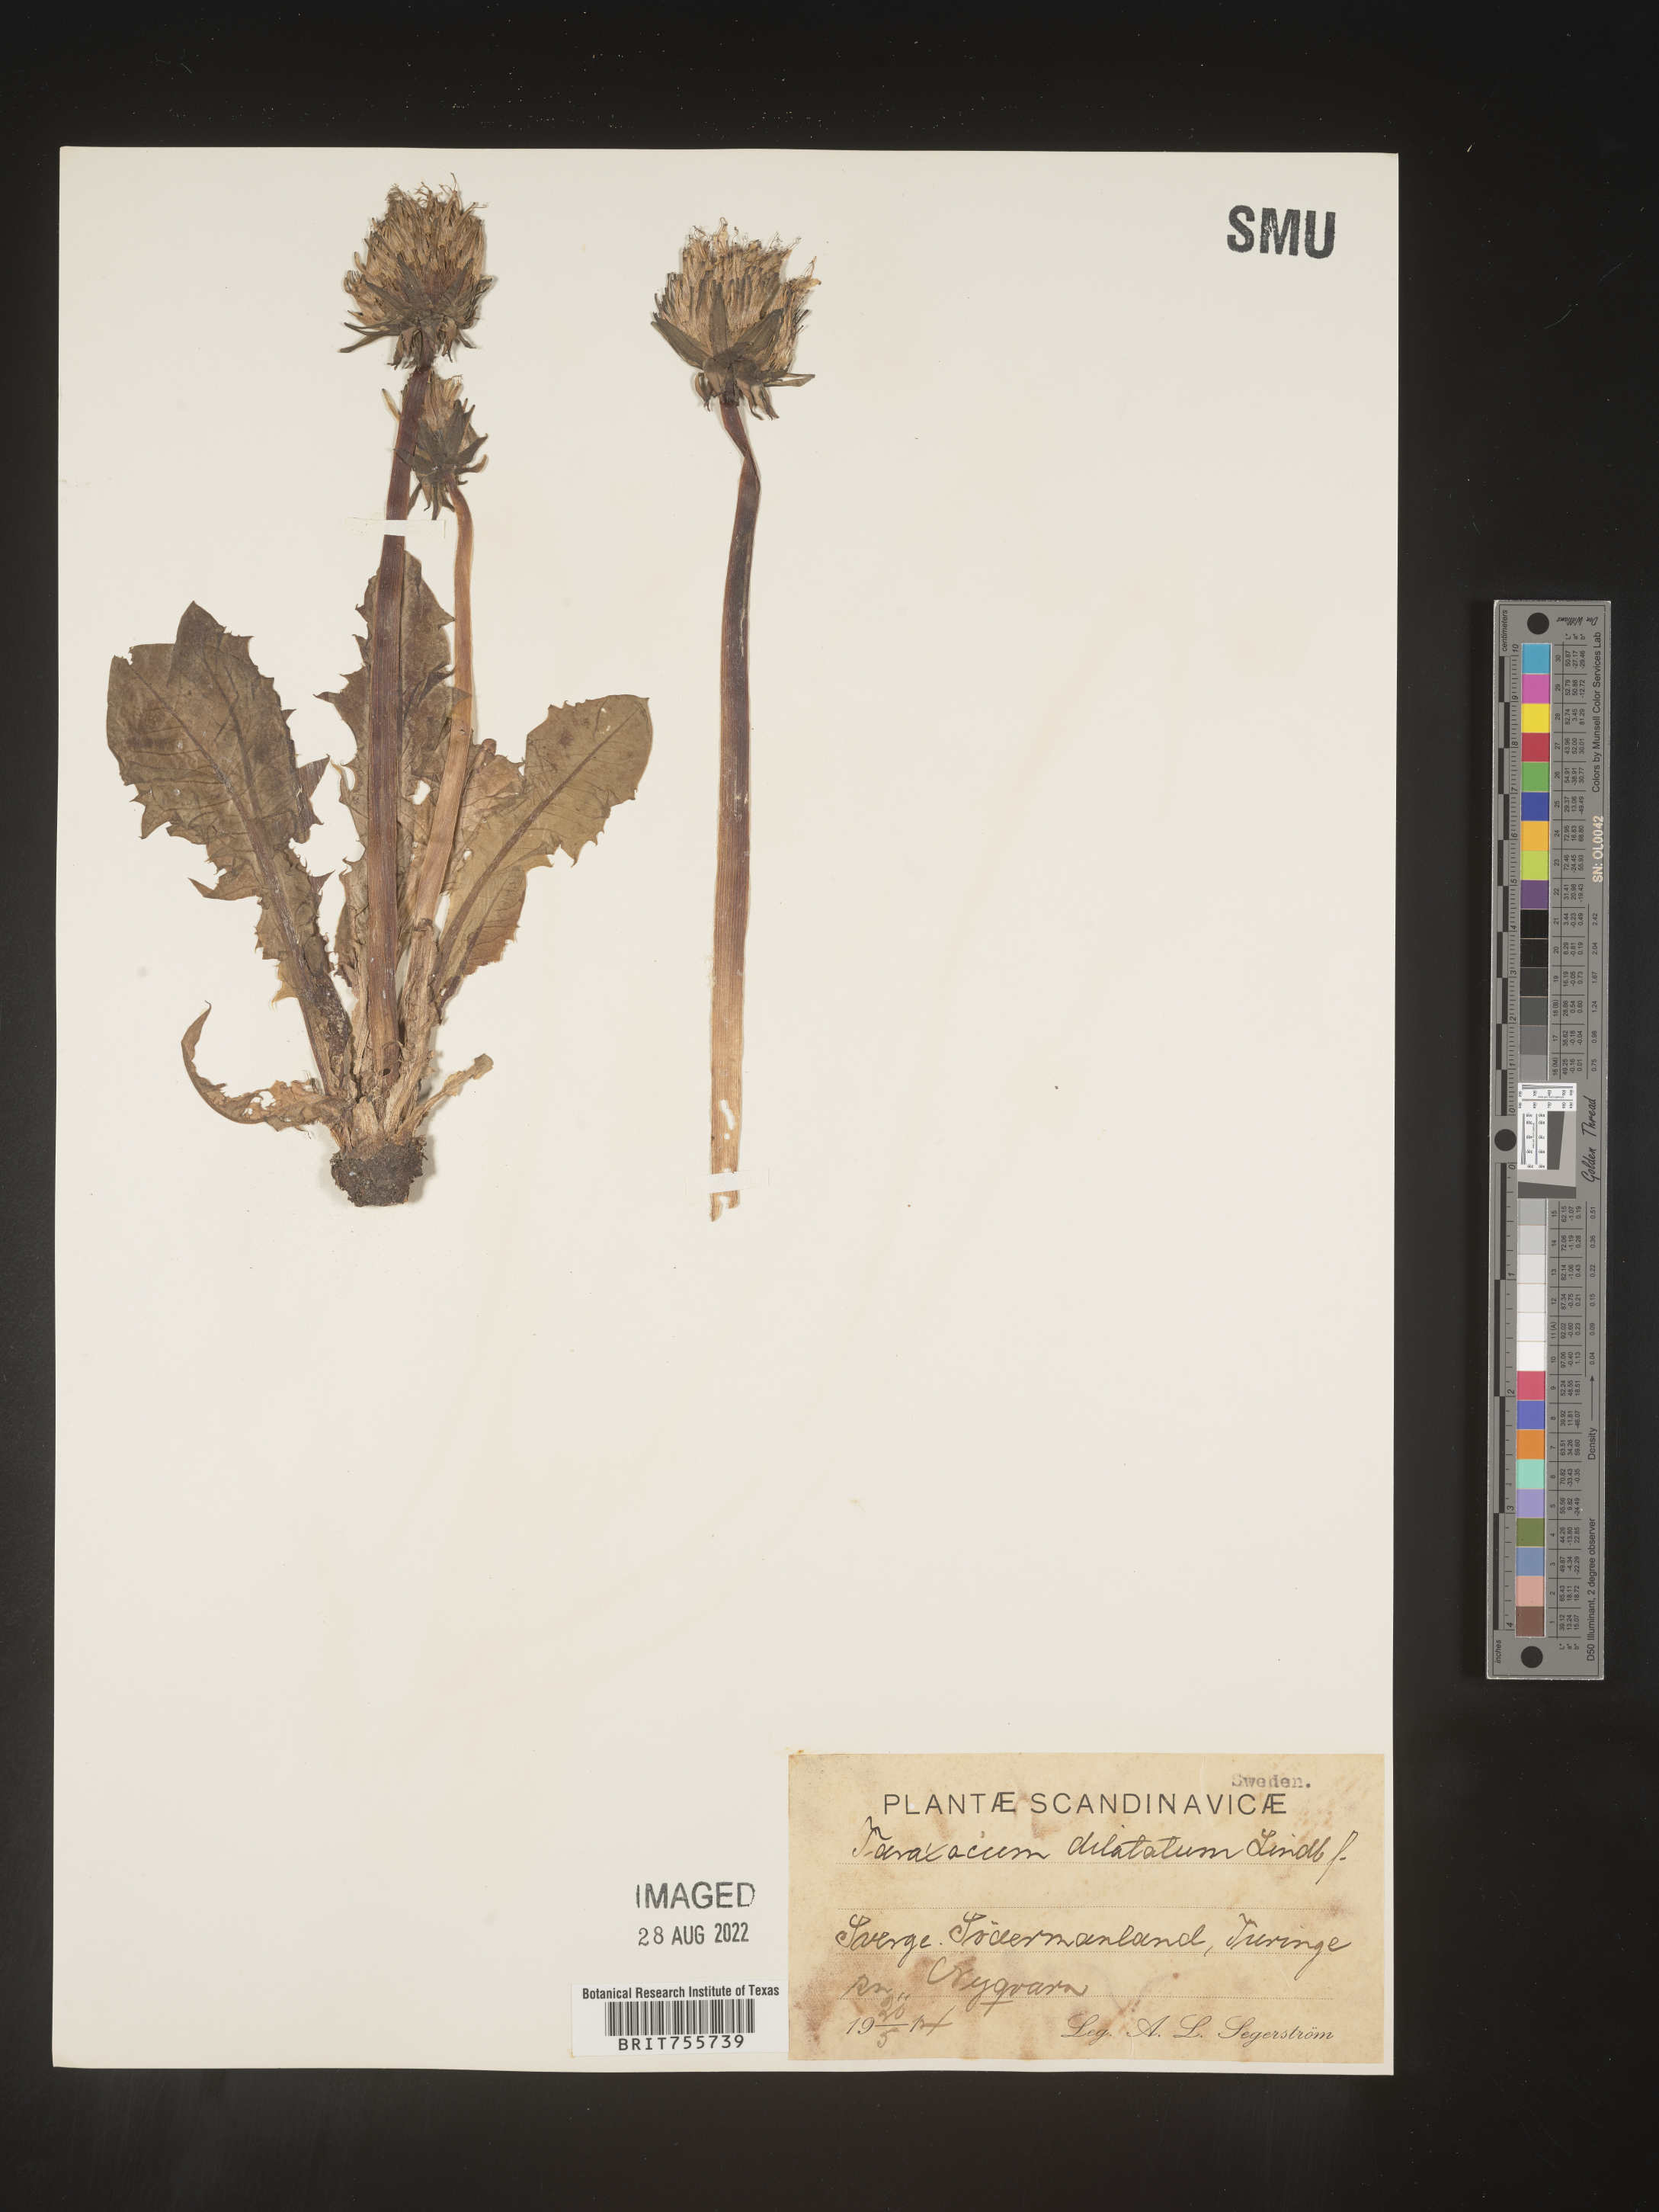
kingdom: Plantae
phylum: Tracheophyta
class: Magnoliopsida
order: Asterales
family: Asteraceae
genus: Taraxacum
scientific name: Taraxacum
